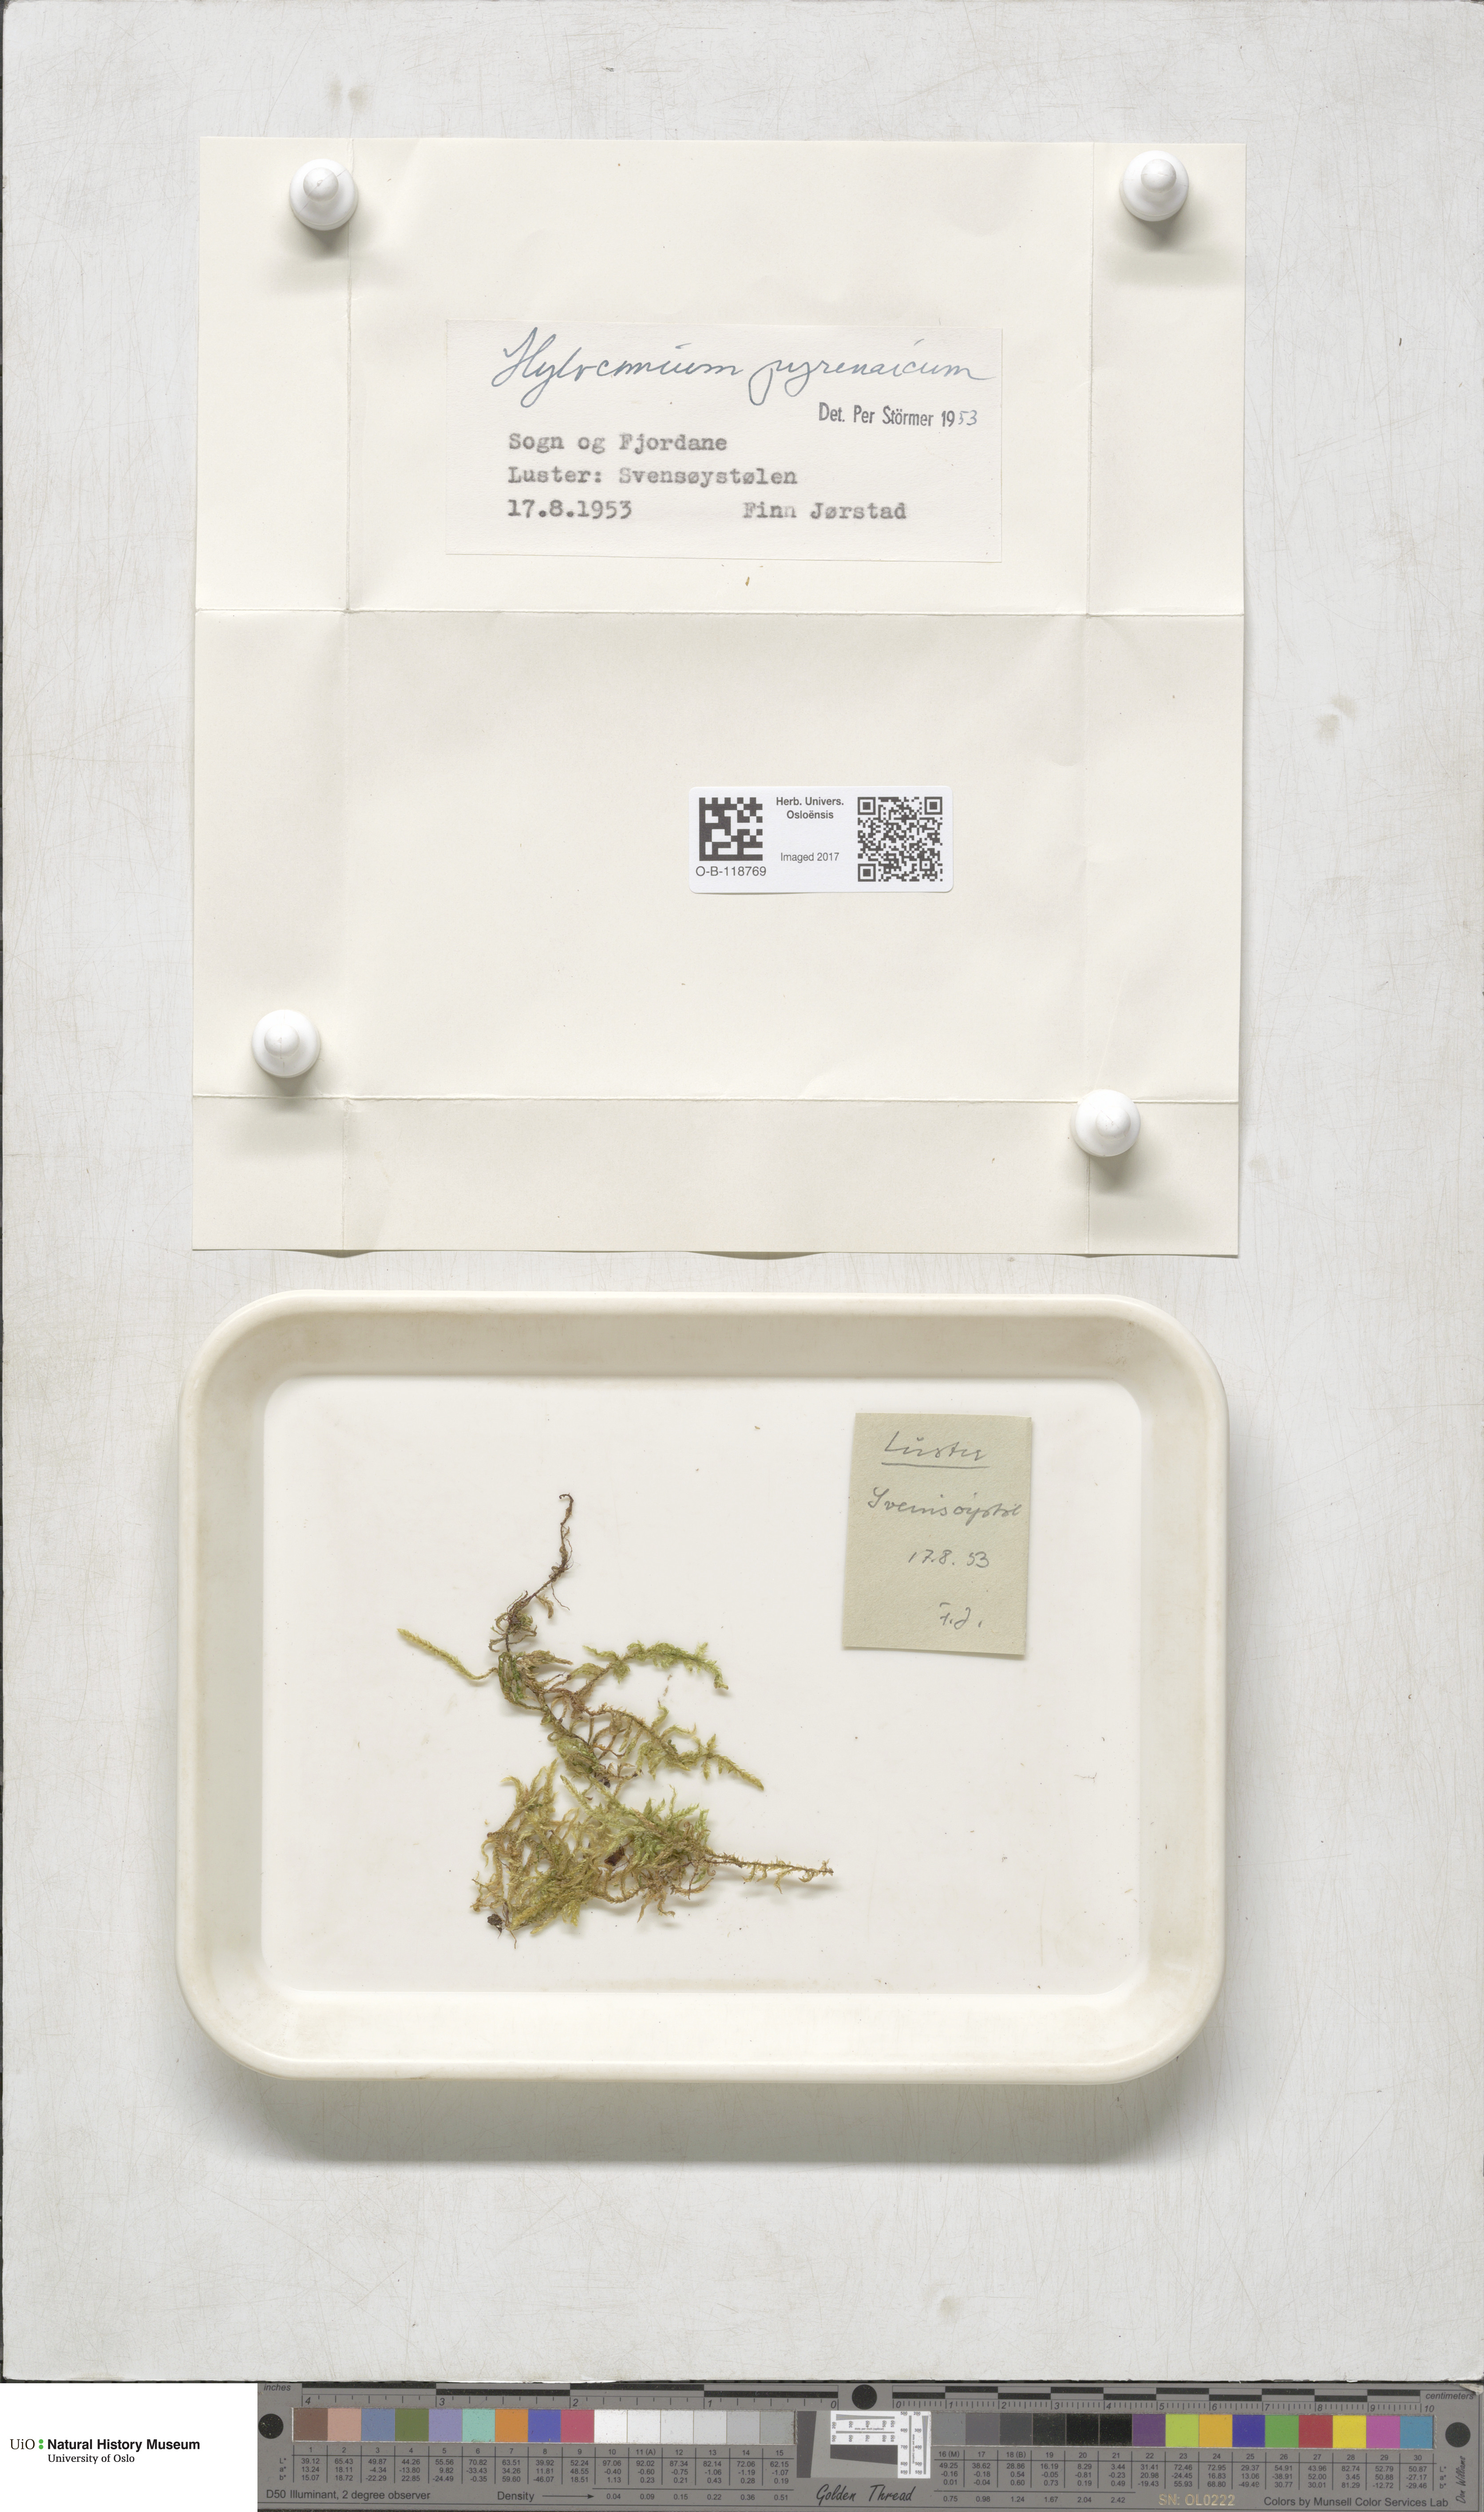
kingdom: Plantae
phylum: Bryophyta
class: Bryopsida
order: Hypnales
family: Hylocomiaceae
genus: Hylocomiastrum
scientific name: Hylocomiastrum pyrenaicum
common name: Oake s wood moss
